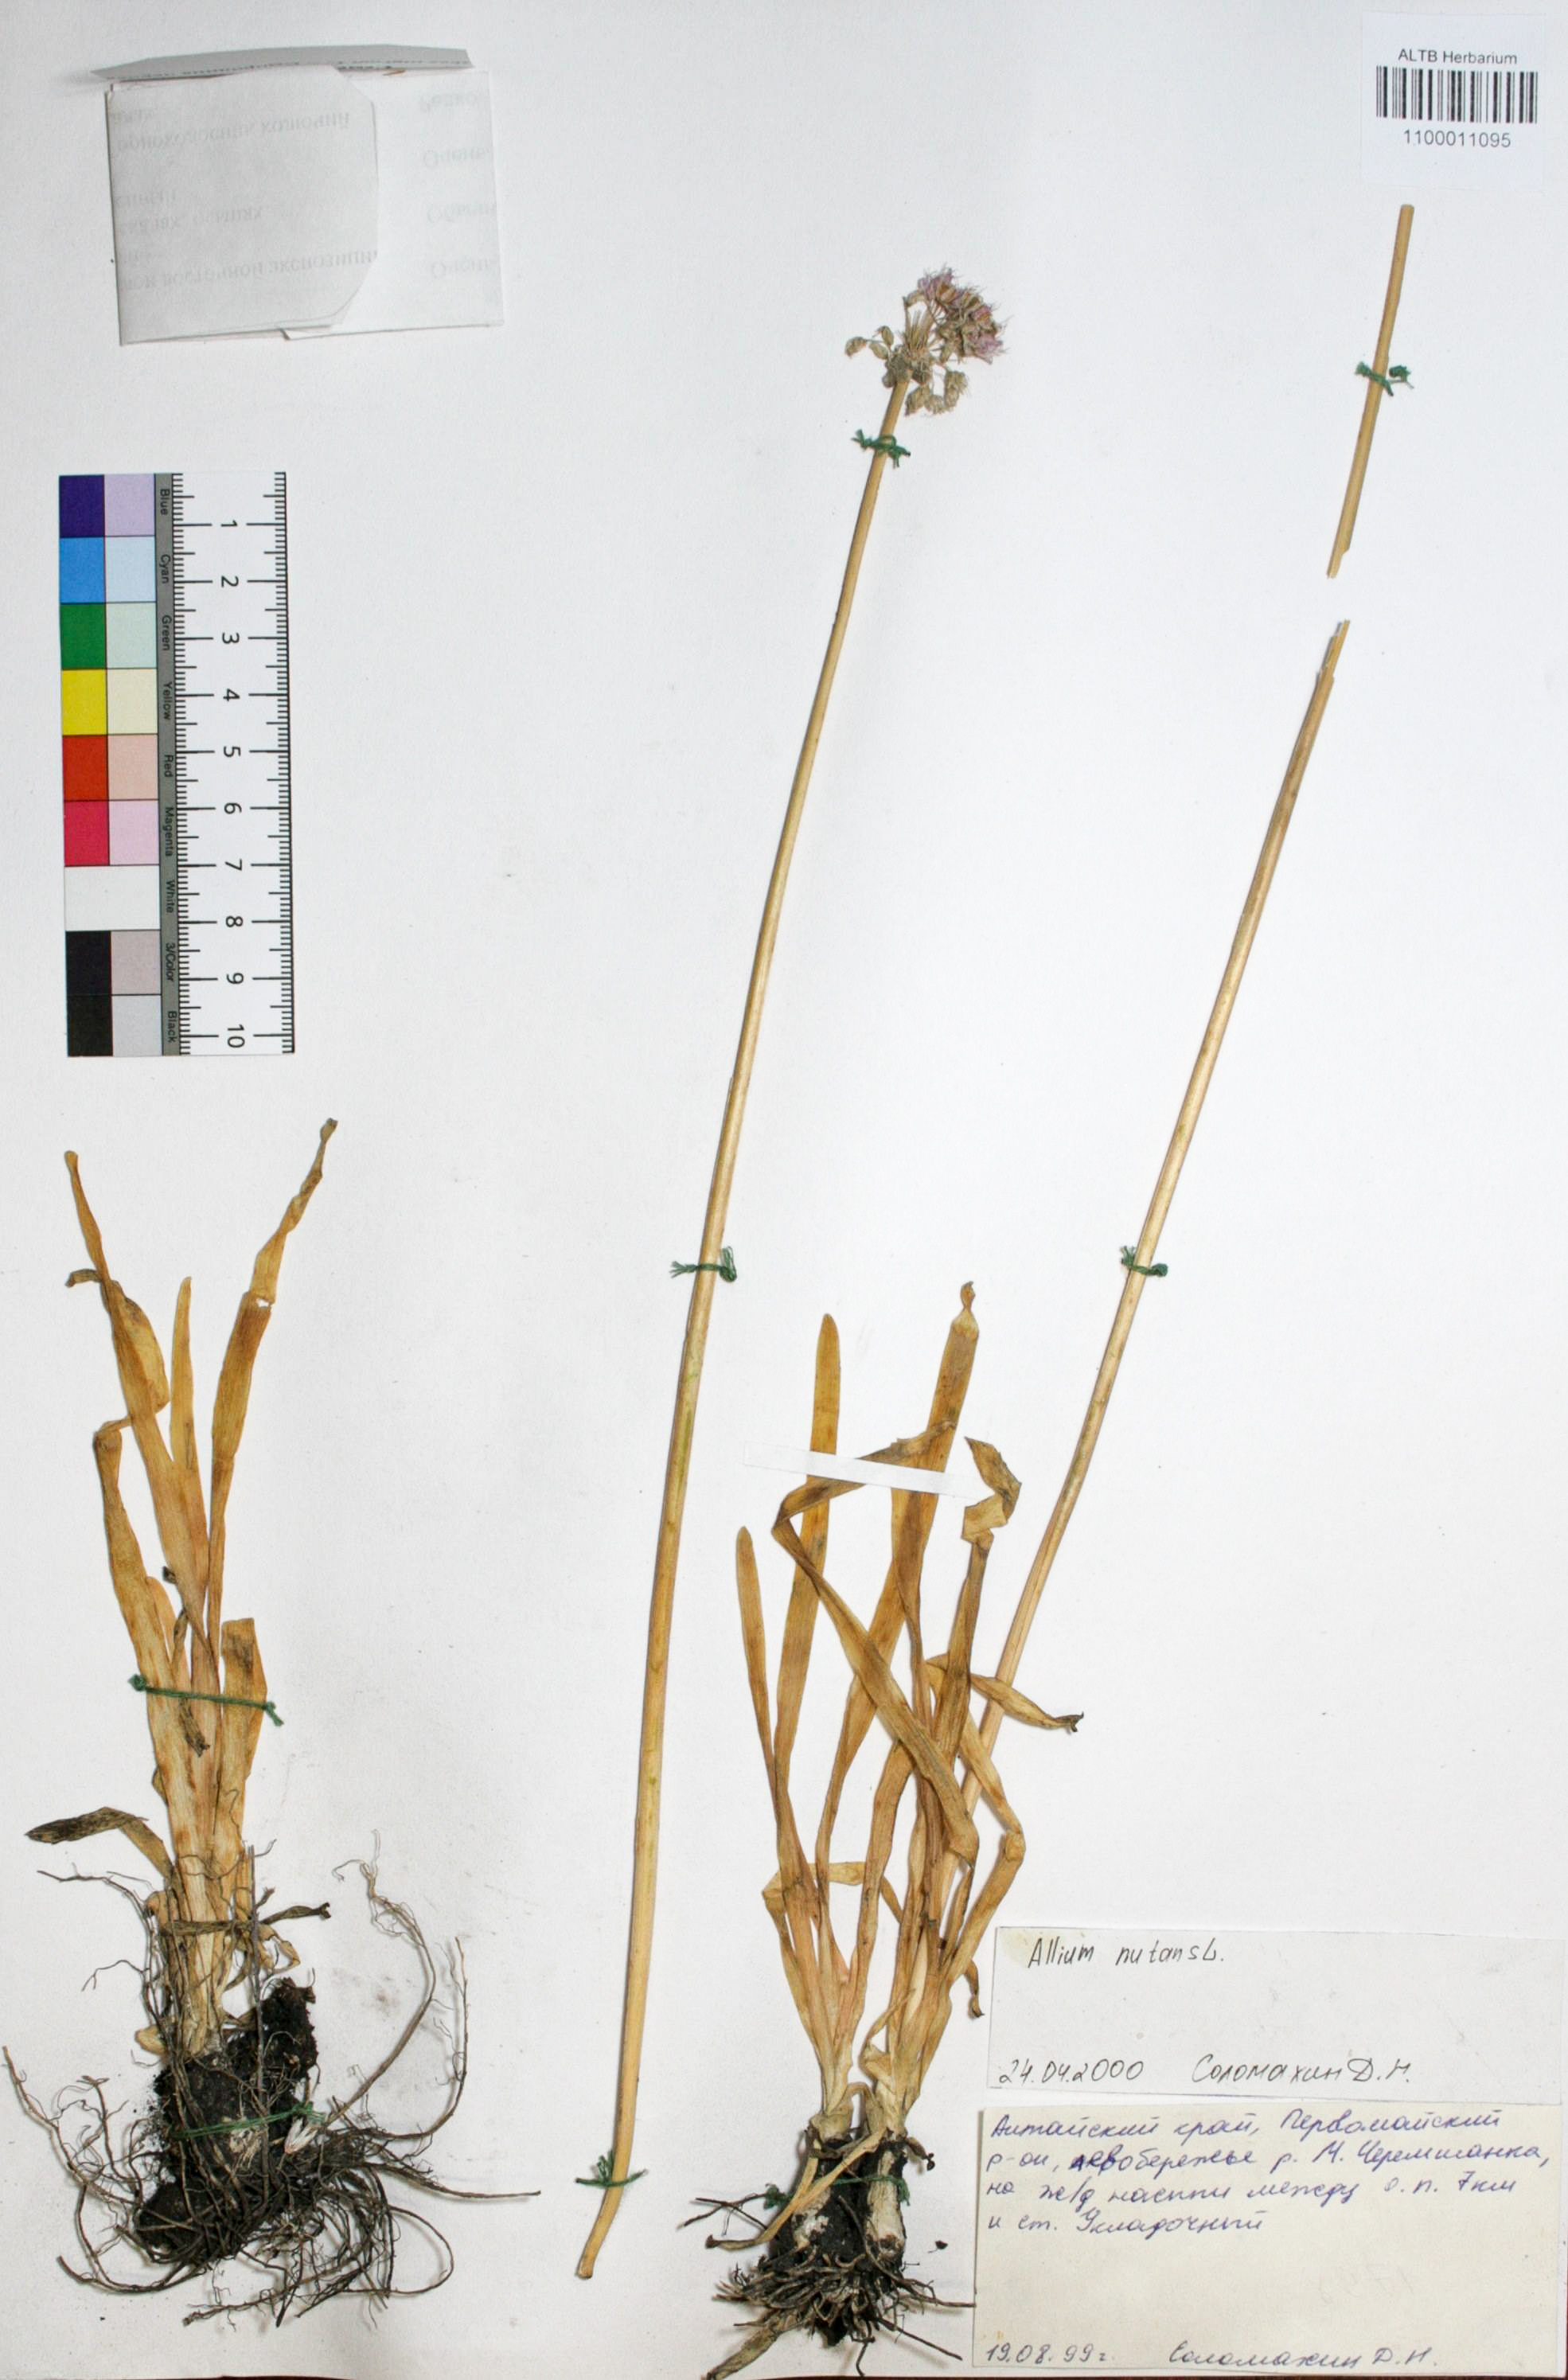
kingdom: Plantae
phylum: Tracheophyta
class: Liliopsida
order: Asparagales
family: Amaryllidaceae
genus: Allium
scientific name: Allium nutans
